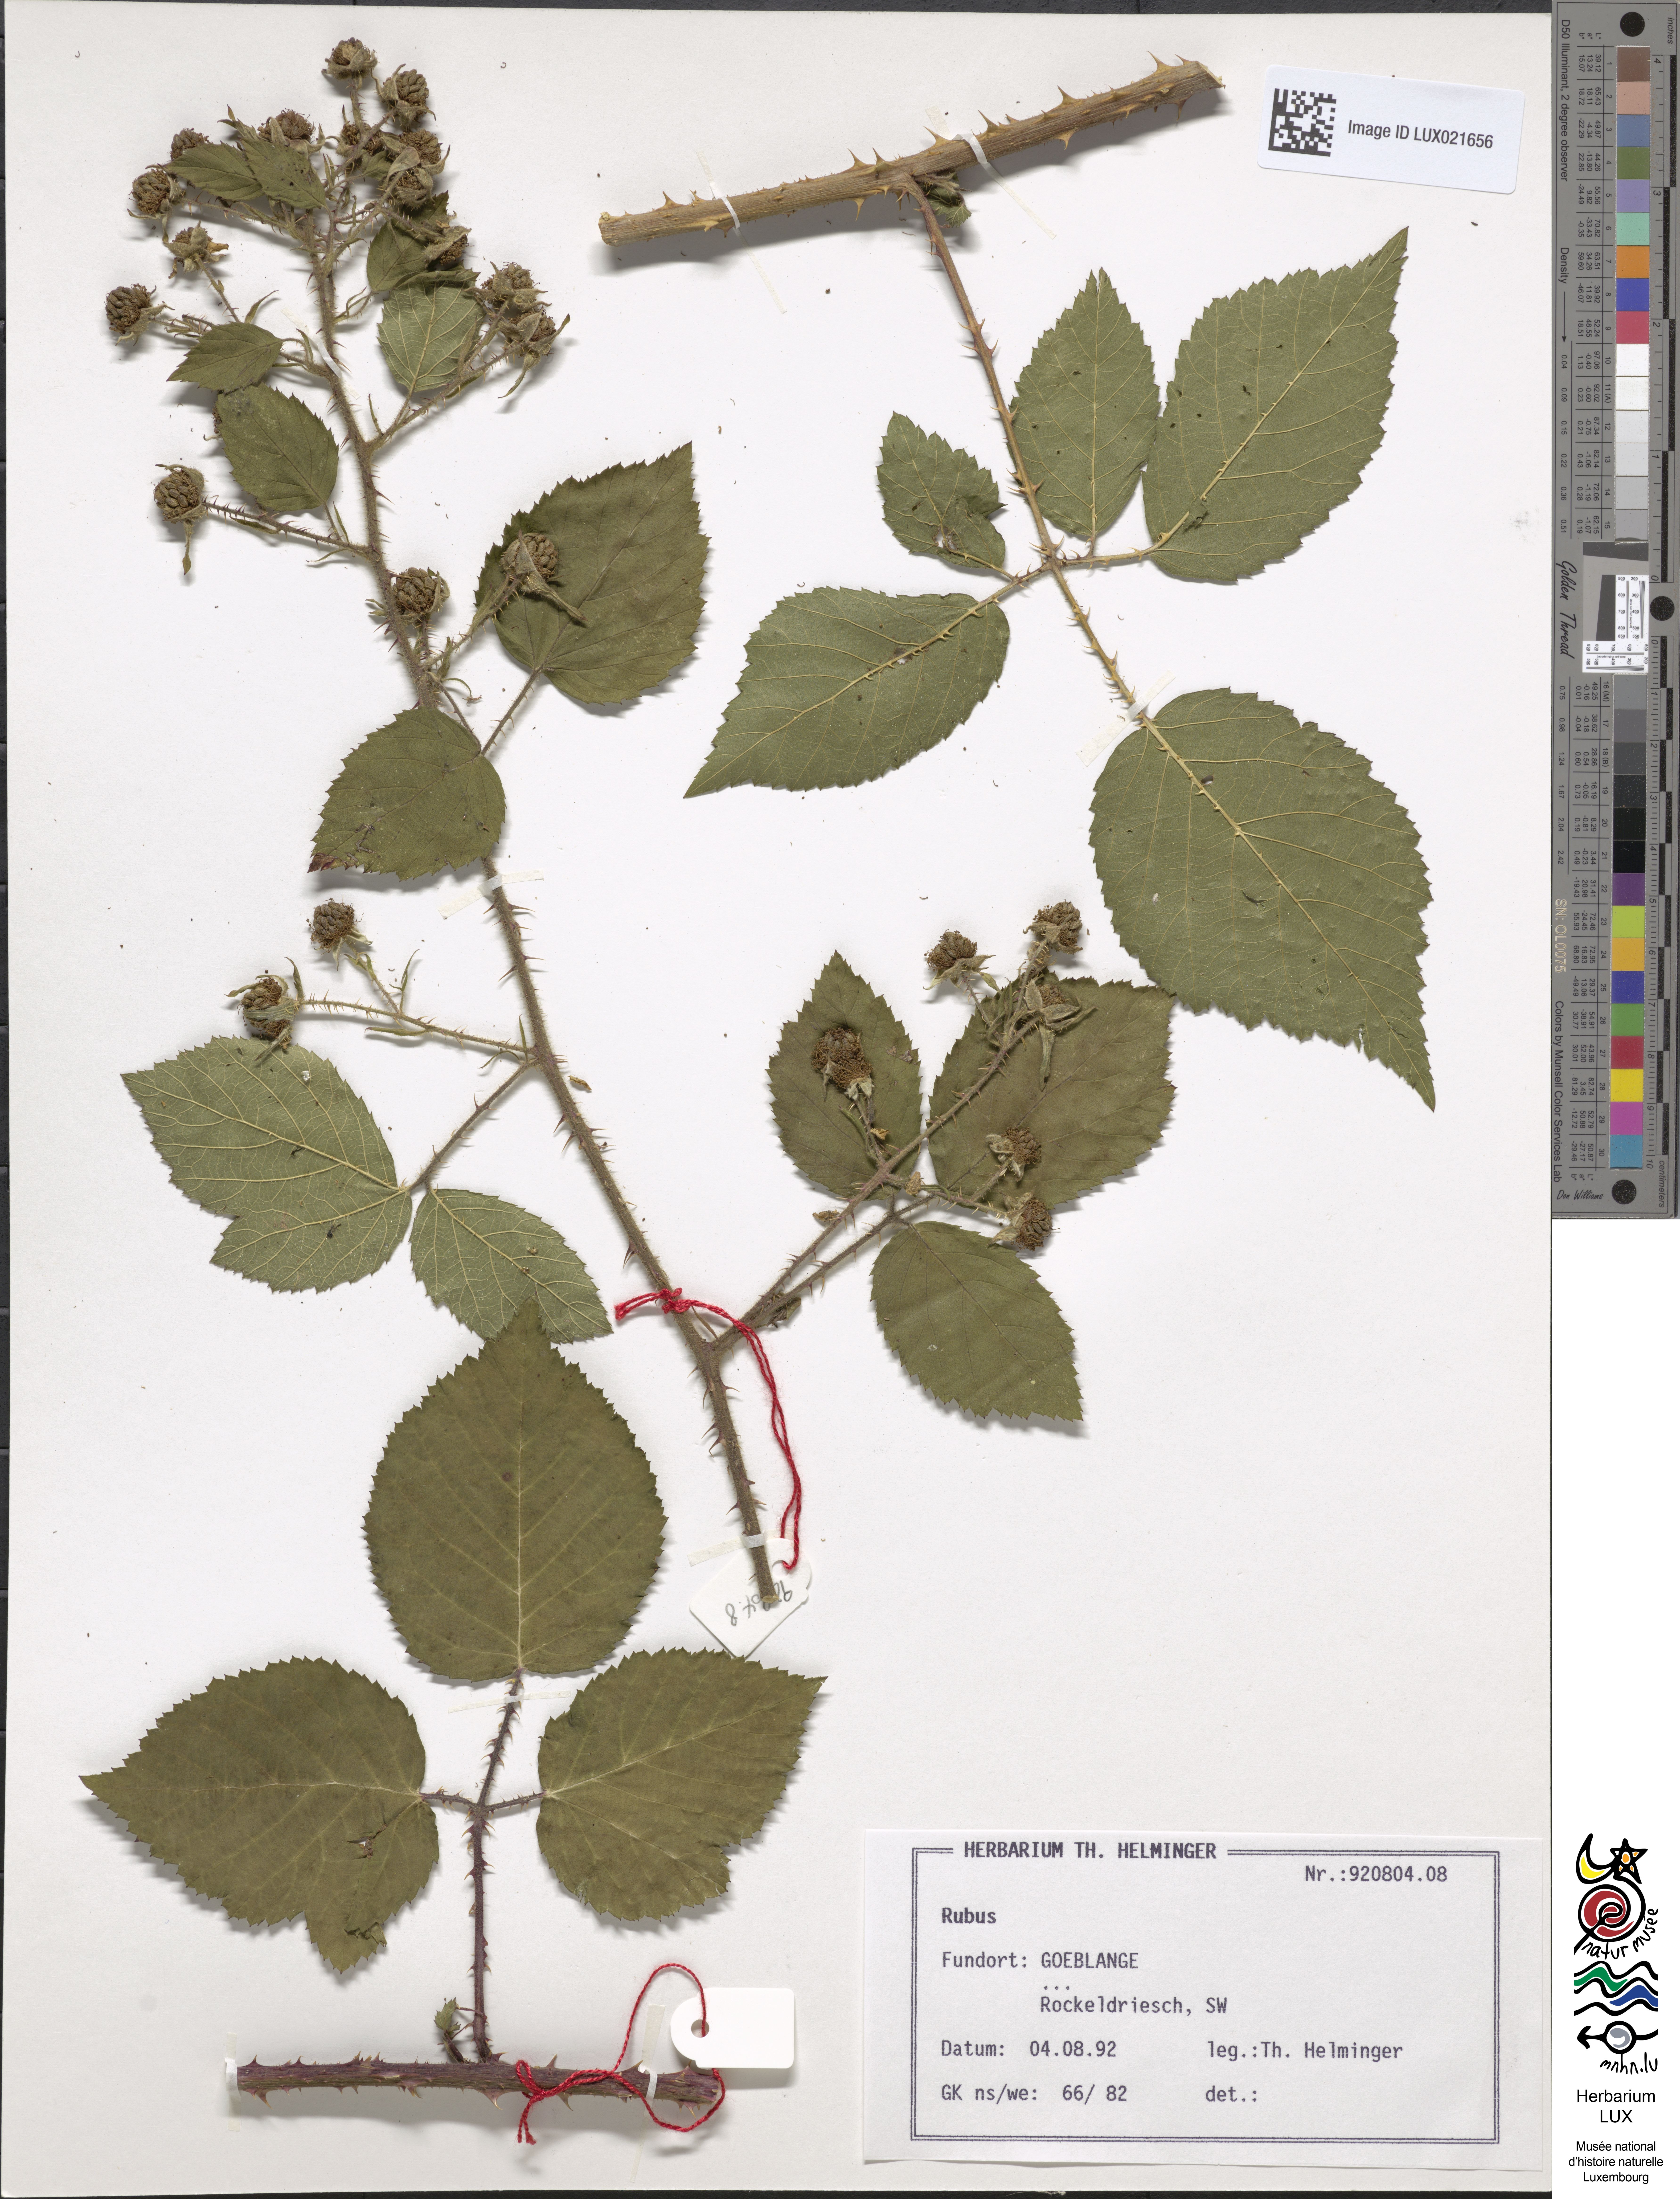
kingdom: Plantae
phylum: Tracheophyta
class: Magnoliopsida
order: Rosales
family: Rosaceae
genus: Rubus
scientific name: Rubus
